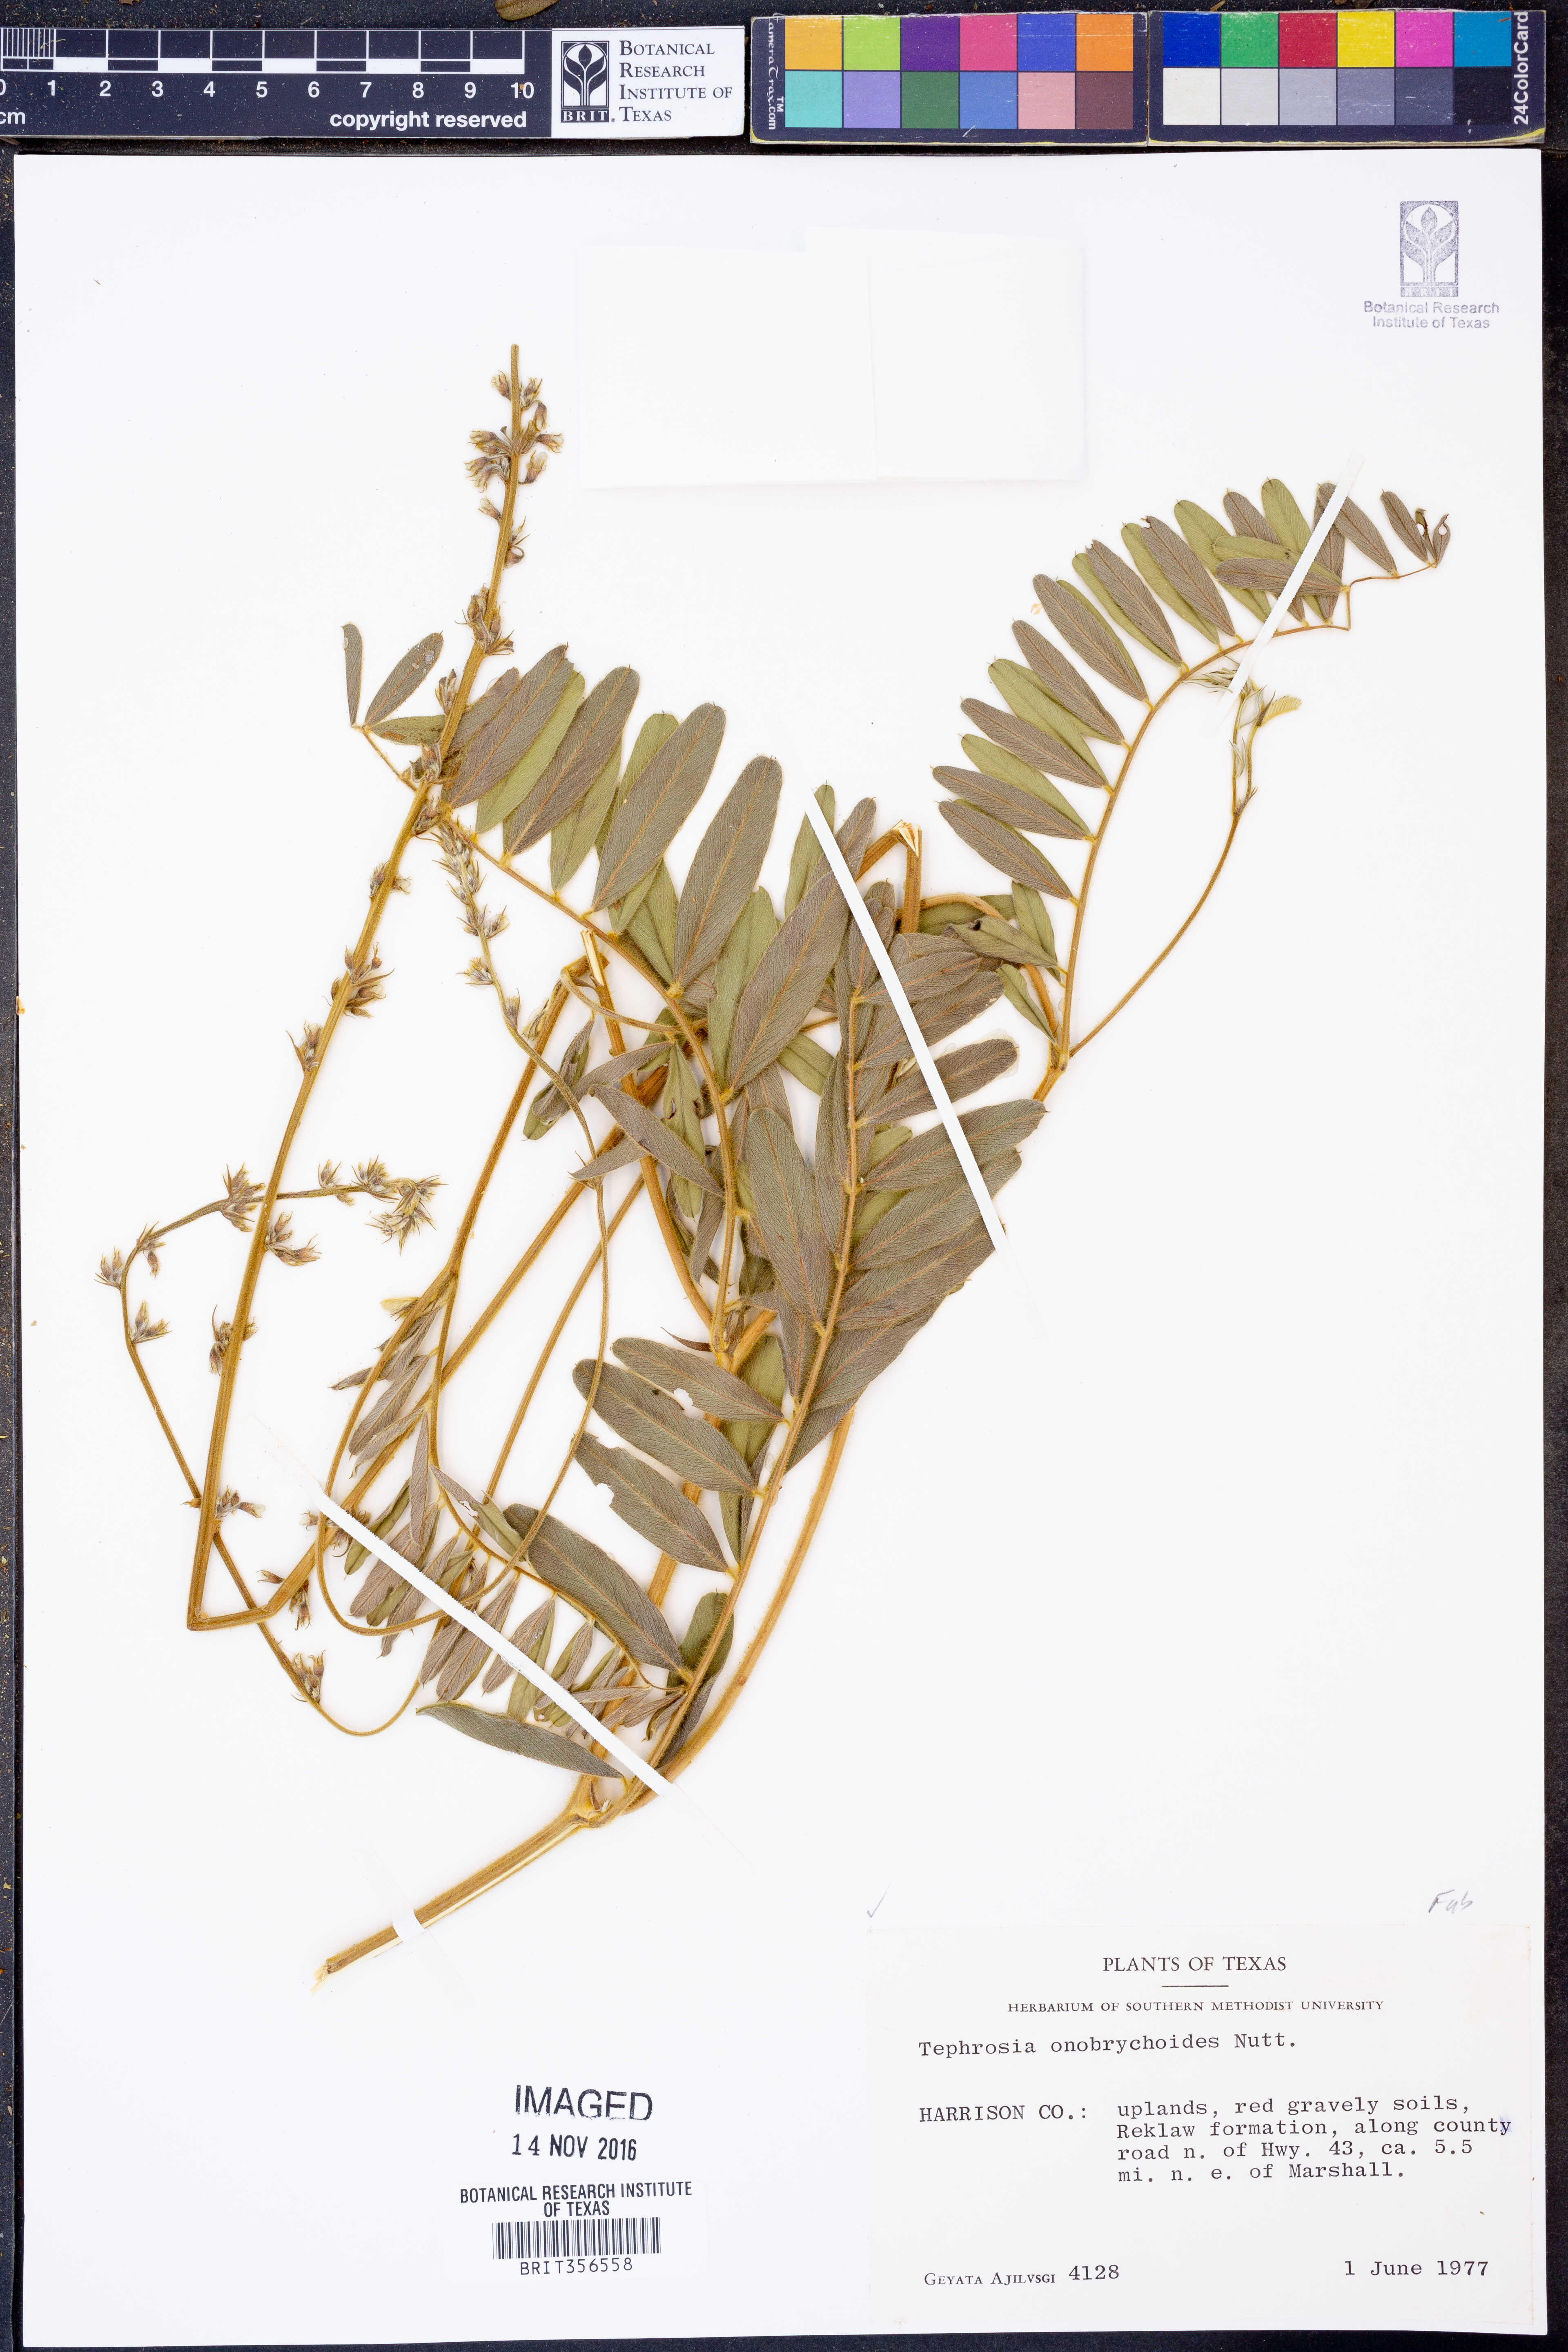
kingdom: Plantae
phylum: Tracheophyta
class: Magnoliopsida
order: Fabales
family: Fabaceae
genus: Tephrosia
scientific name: Tephrosia onobrychoides
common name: Multi-bloom hoary-pea
